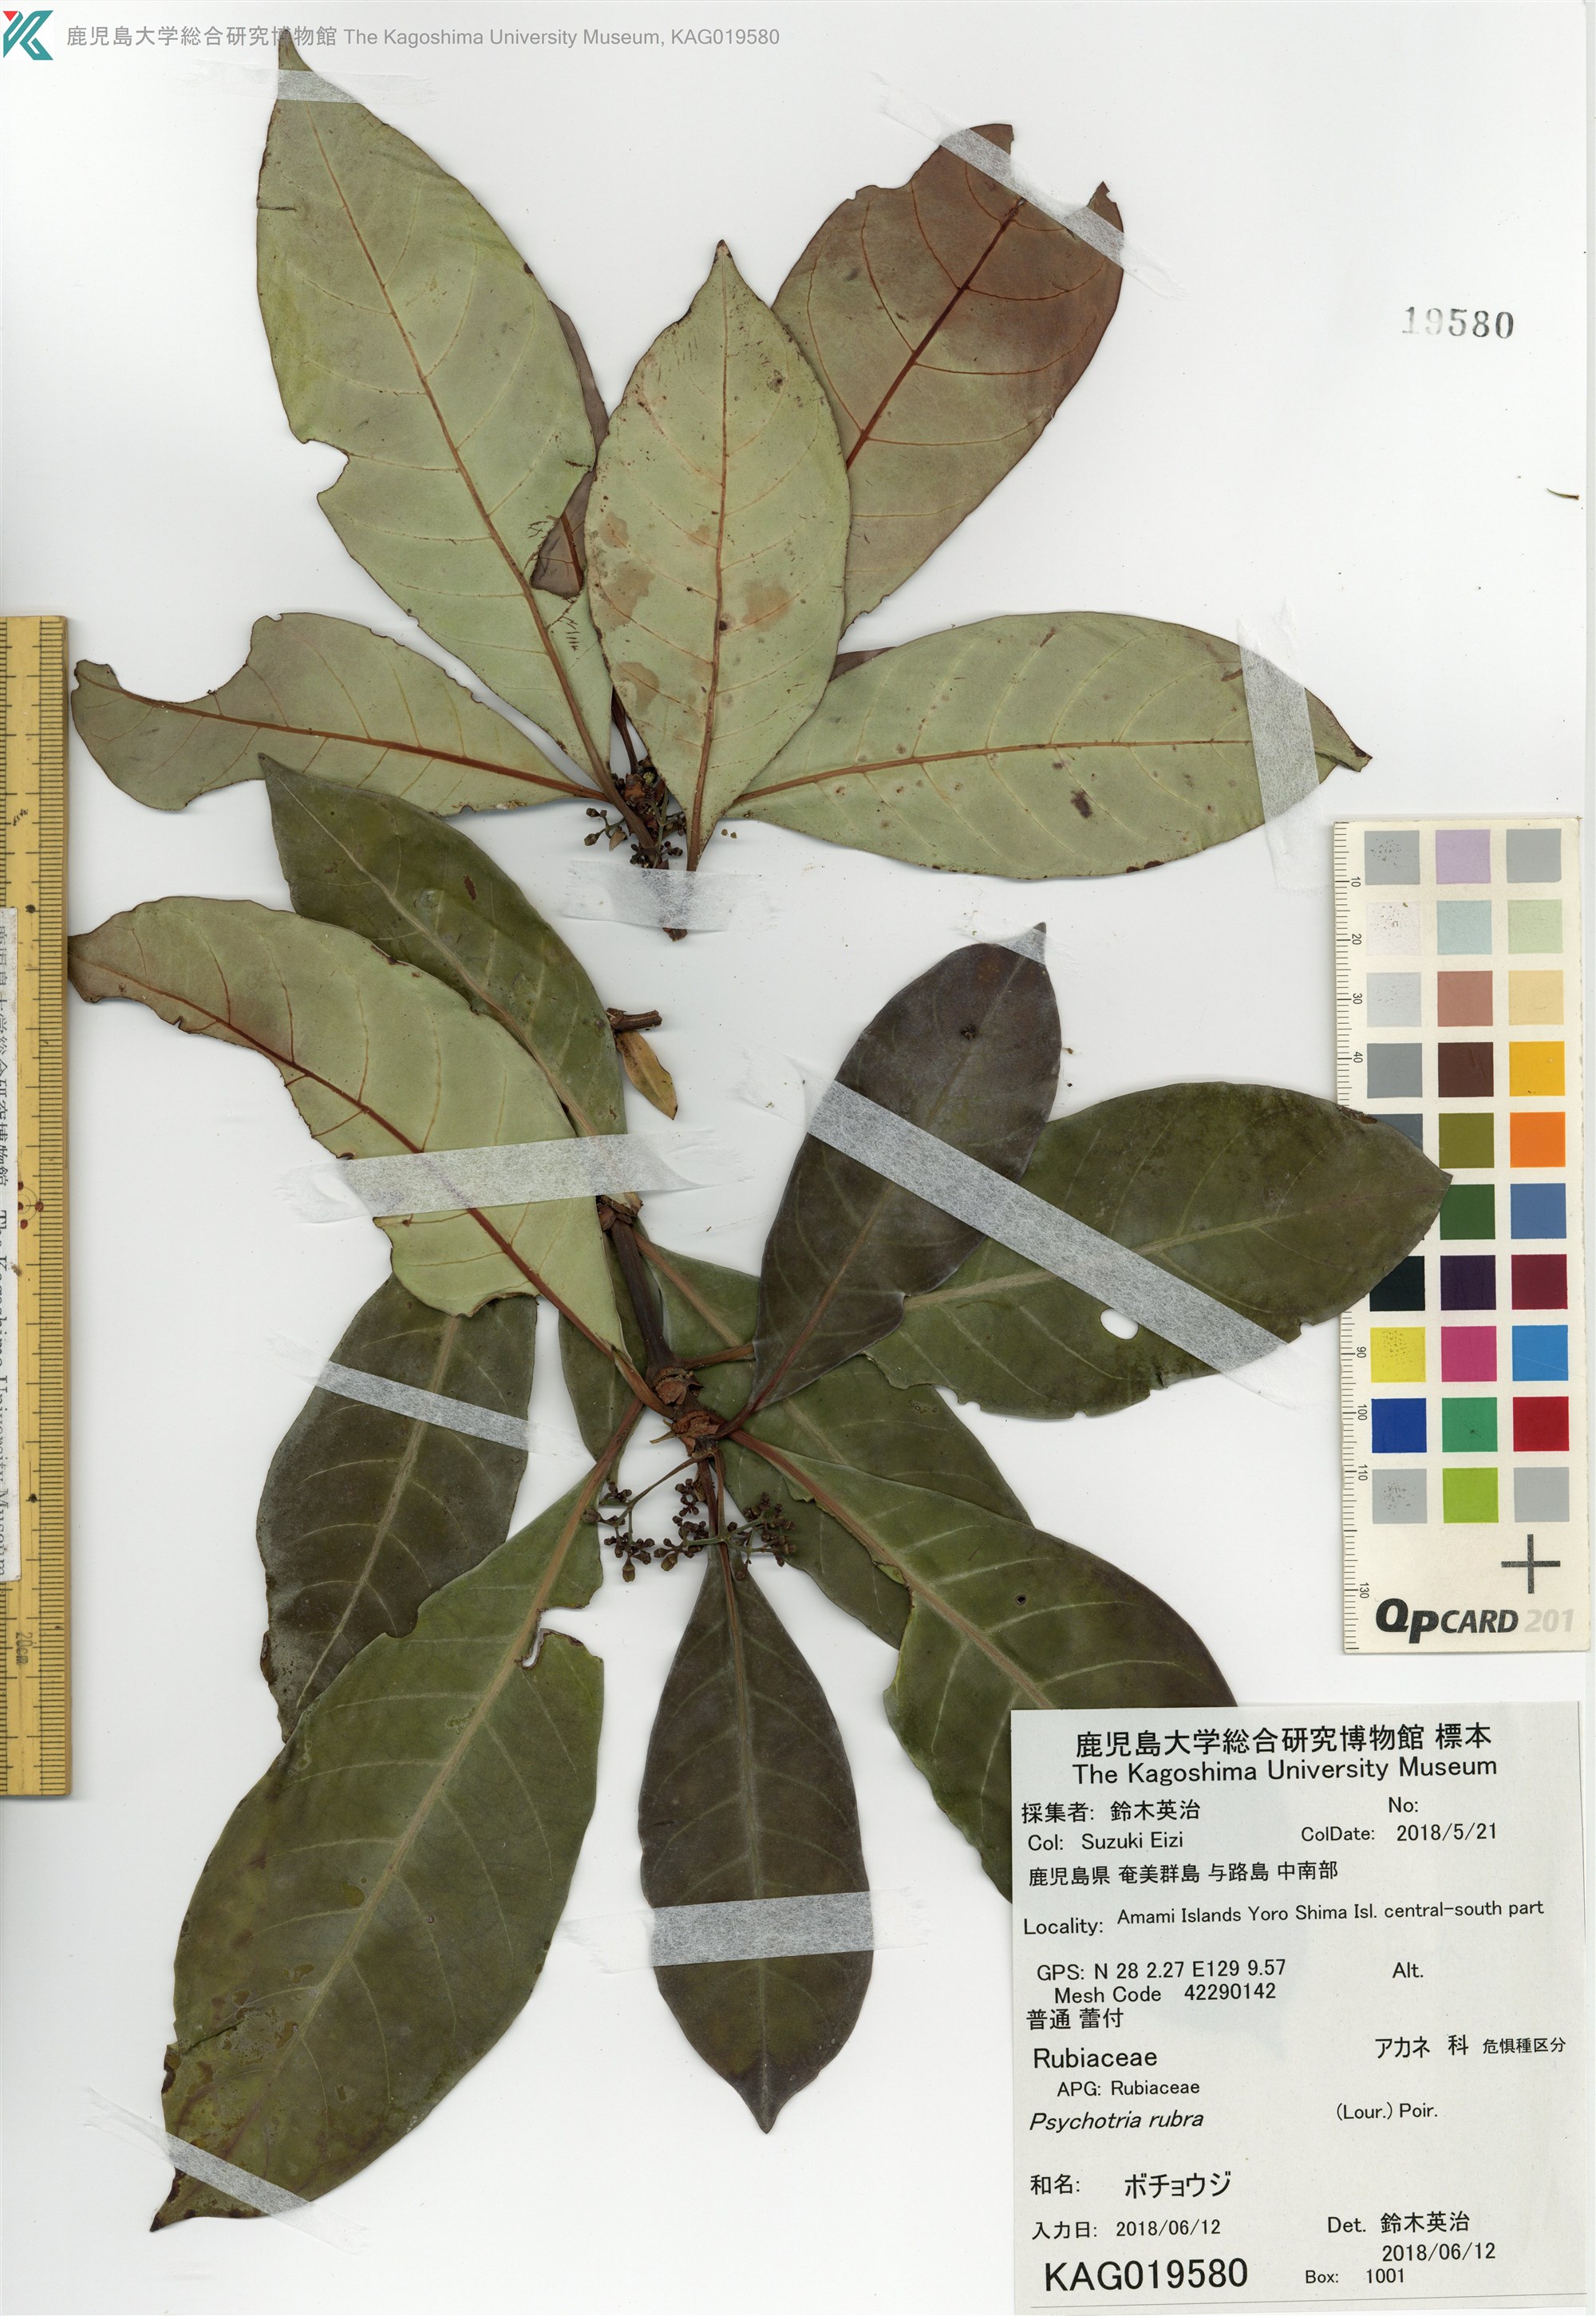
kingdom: Plantae
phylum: Tracheophyta
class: Magnoliopsida
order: Gentianales
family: Rubiaceae
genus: Psychotria
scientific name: Psychotria asiatica
